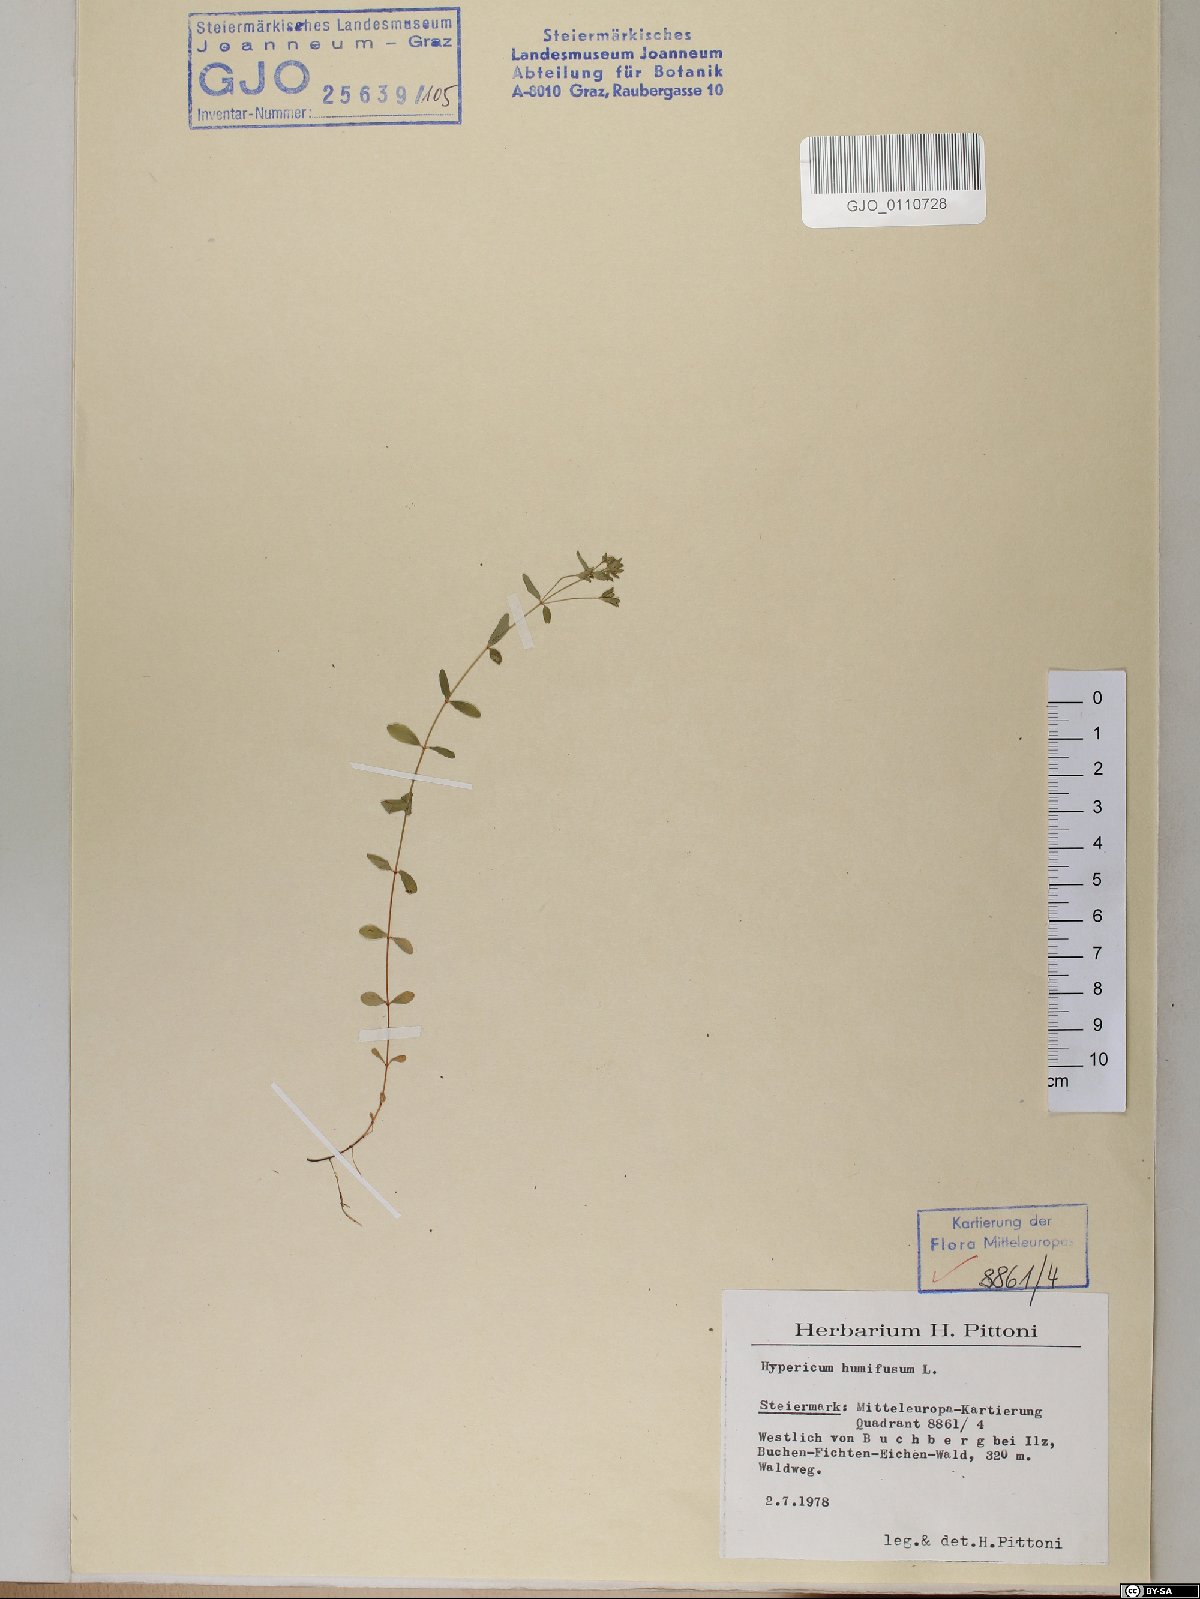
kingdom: Plantae
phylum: Tracheophyta
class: Magnoliopsida
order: Malpighiales
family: Hypericaceae
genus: Hypericum
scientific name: Hypericum humifusum
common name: Trailing st. john's-wort
